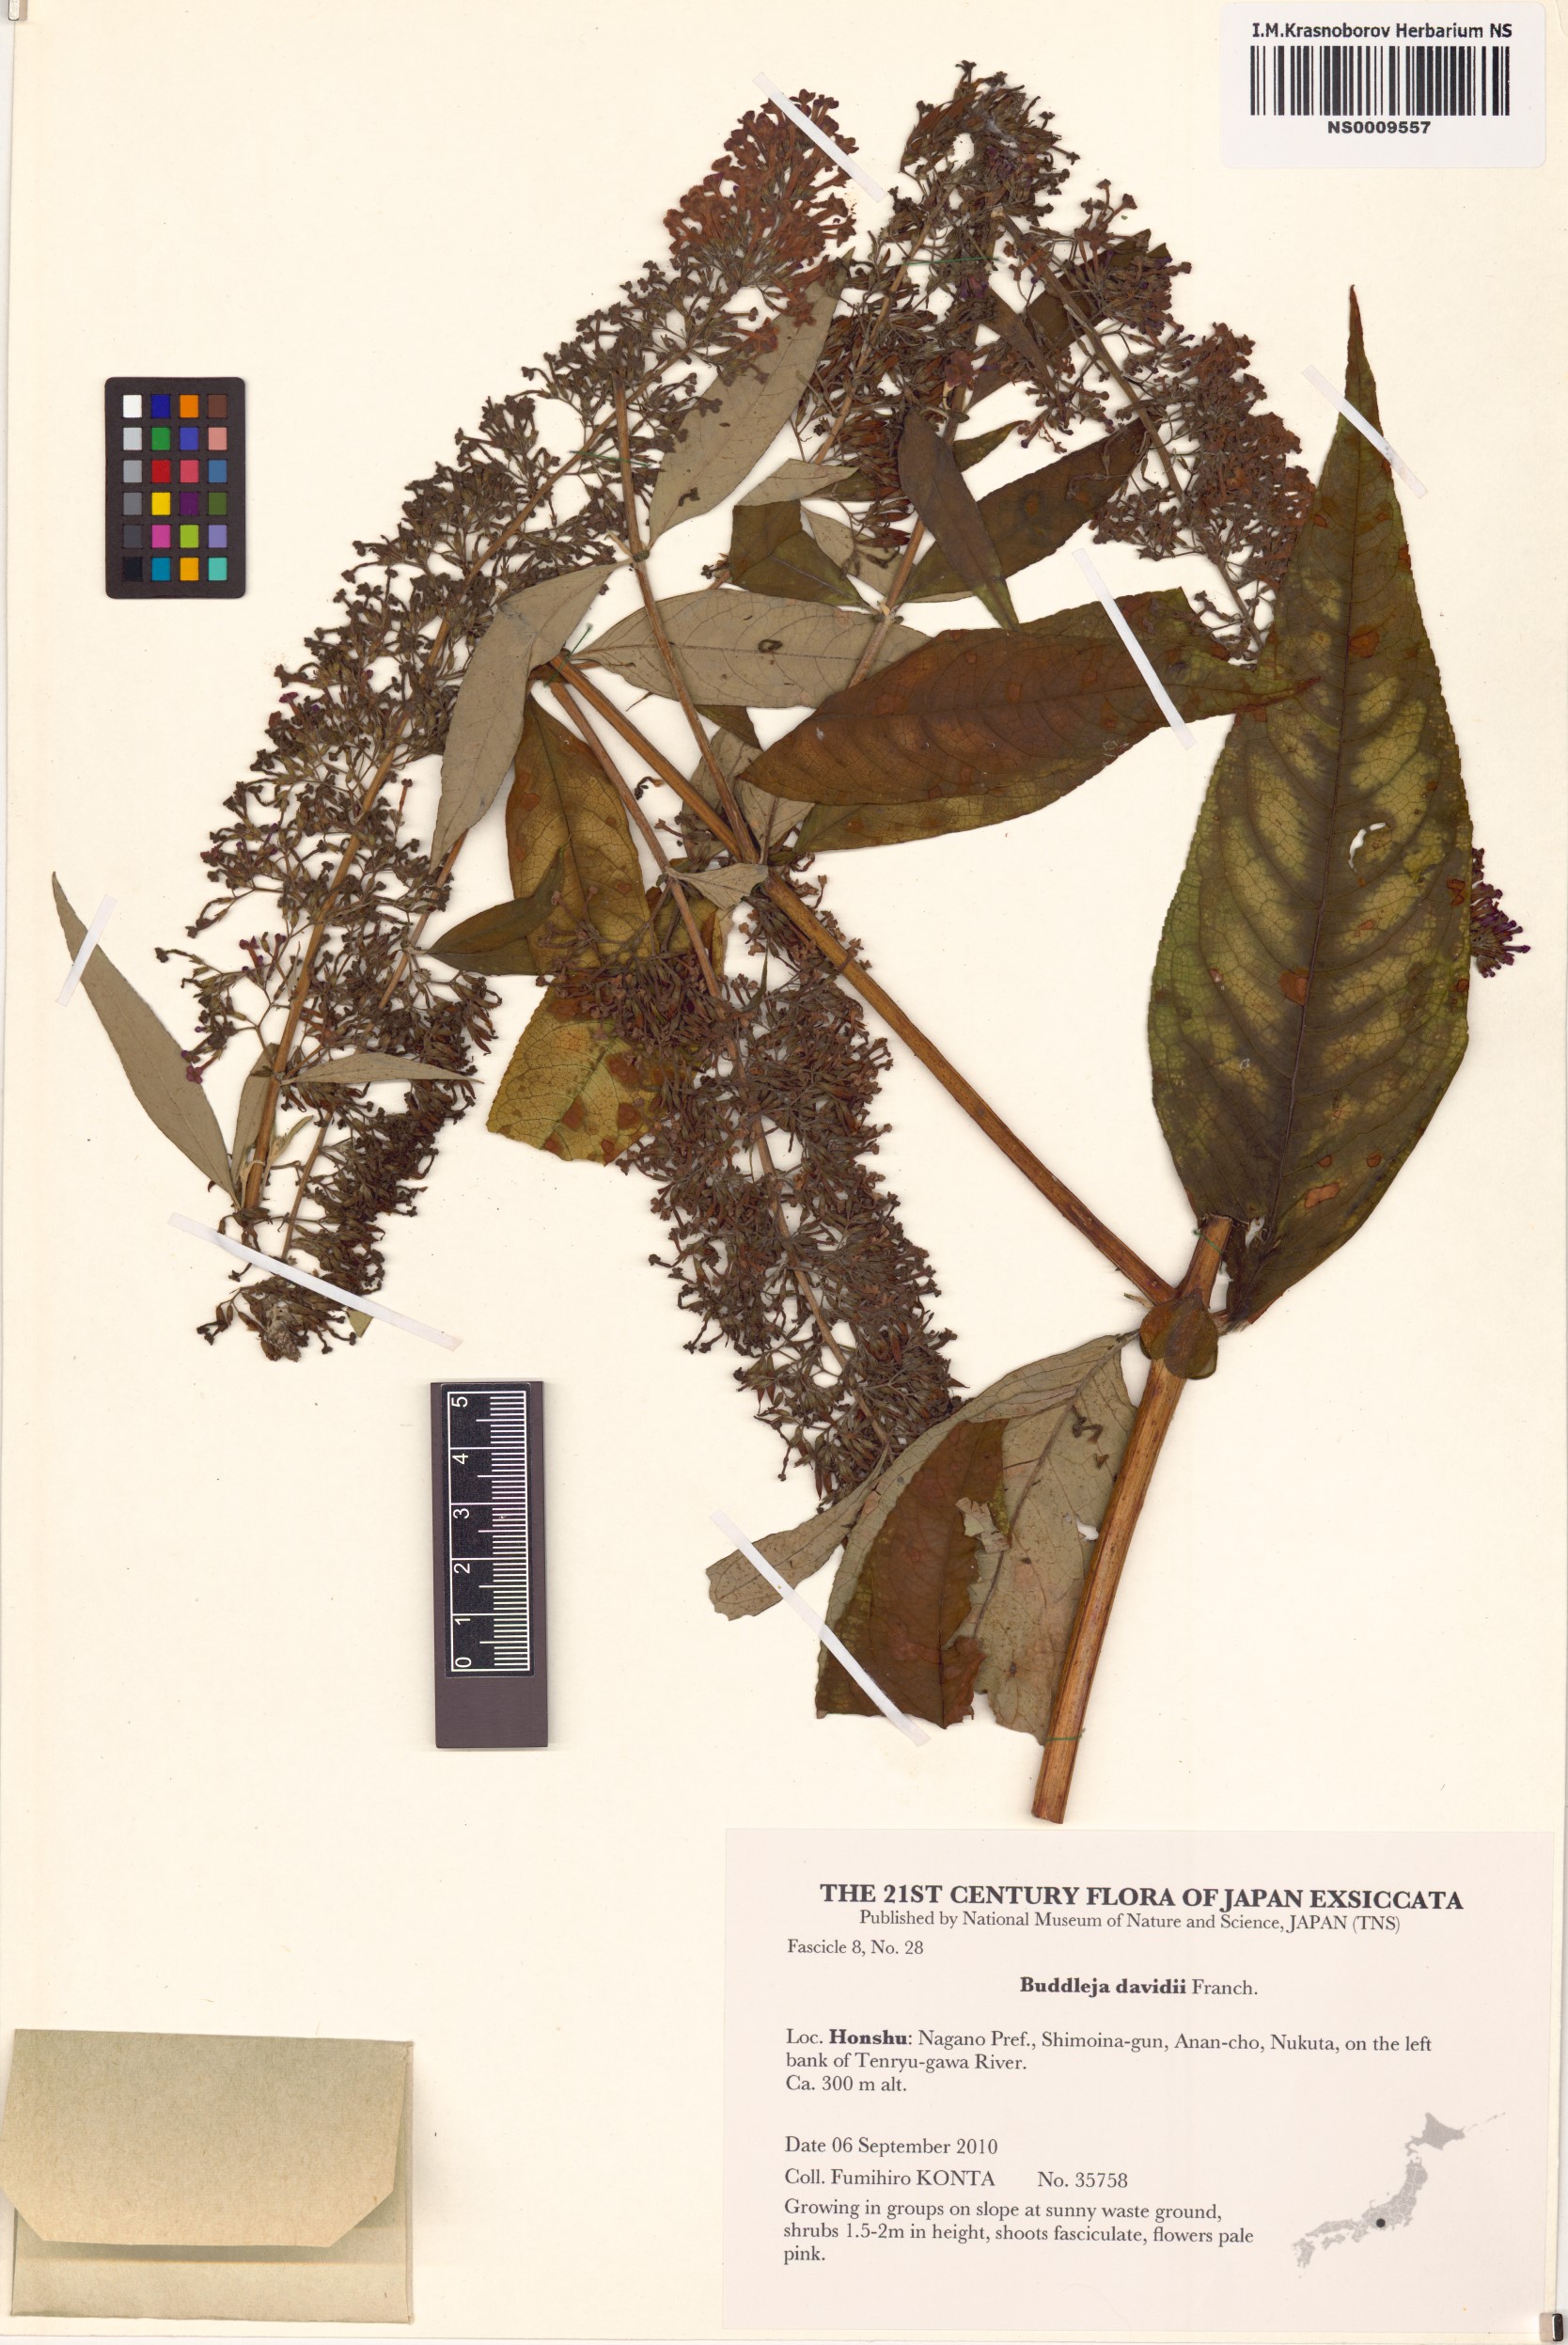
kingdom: Plantae
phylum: Tracheophyta
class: Magnoliopsida
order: Lamiales
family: Scrophulariaceae
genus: Buddleja
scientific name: Buddleja davidii
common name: Butterfly-bush
